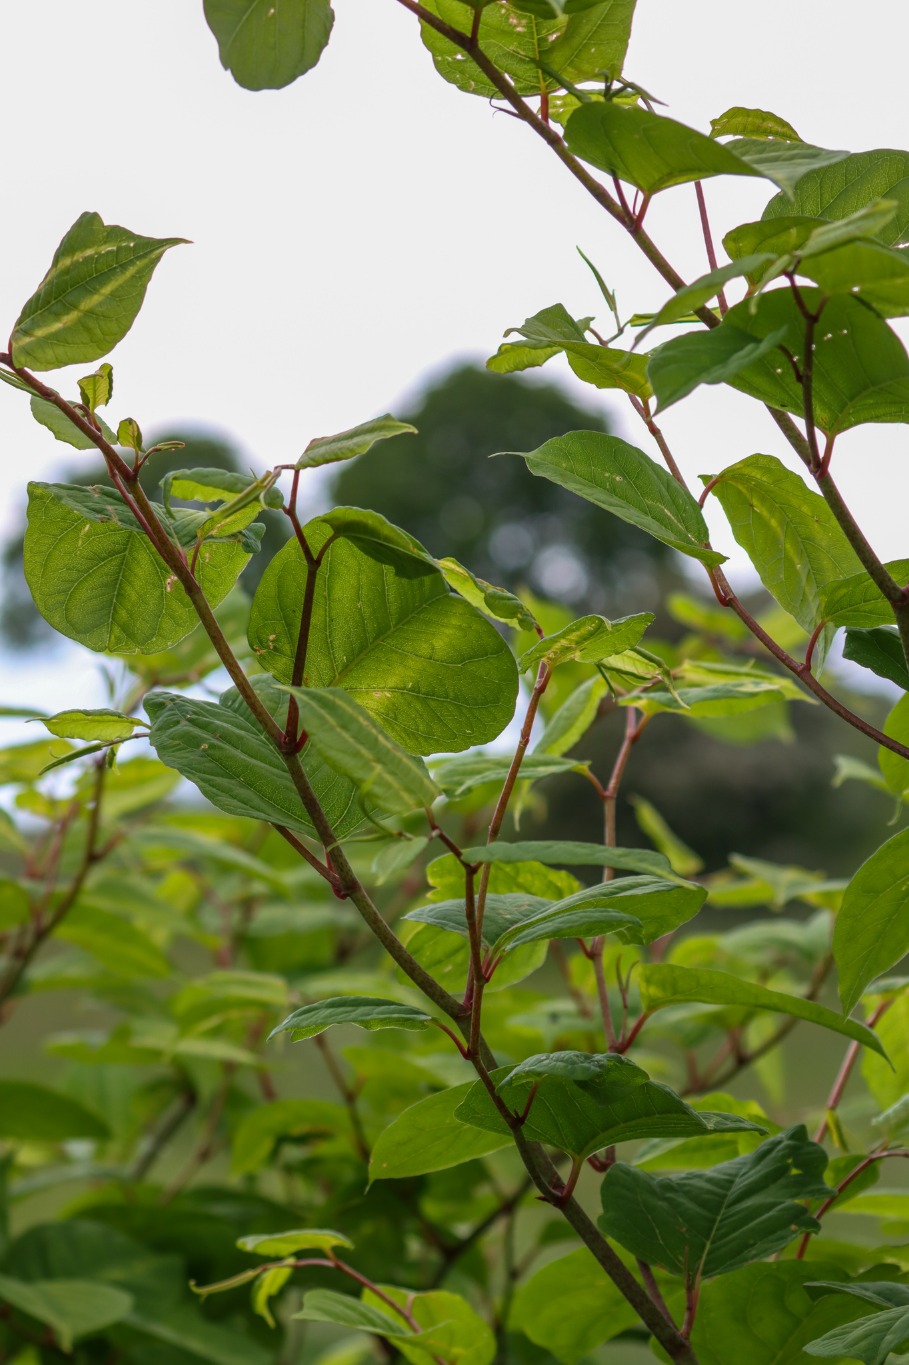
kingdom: Plantae
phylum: Tracheophyta
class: Magnoliopsida
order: Caryophyllales
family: Polygonaceae
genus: Reynoutria
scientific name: Reynoutria japonica
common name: Japan-pileurt
